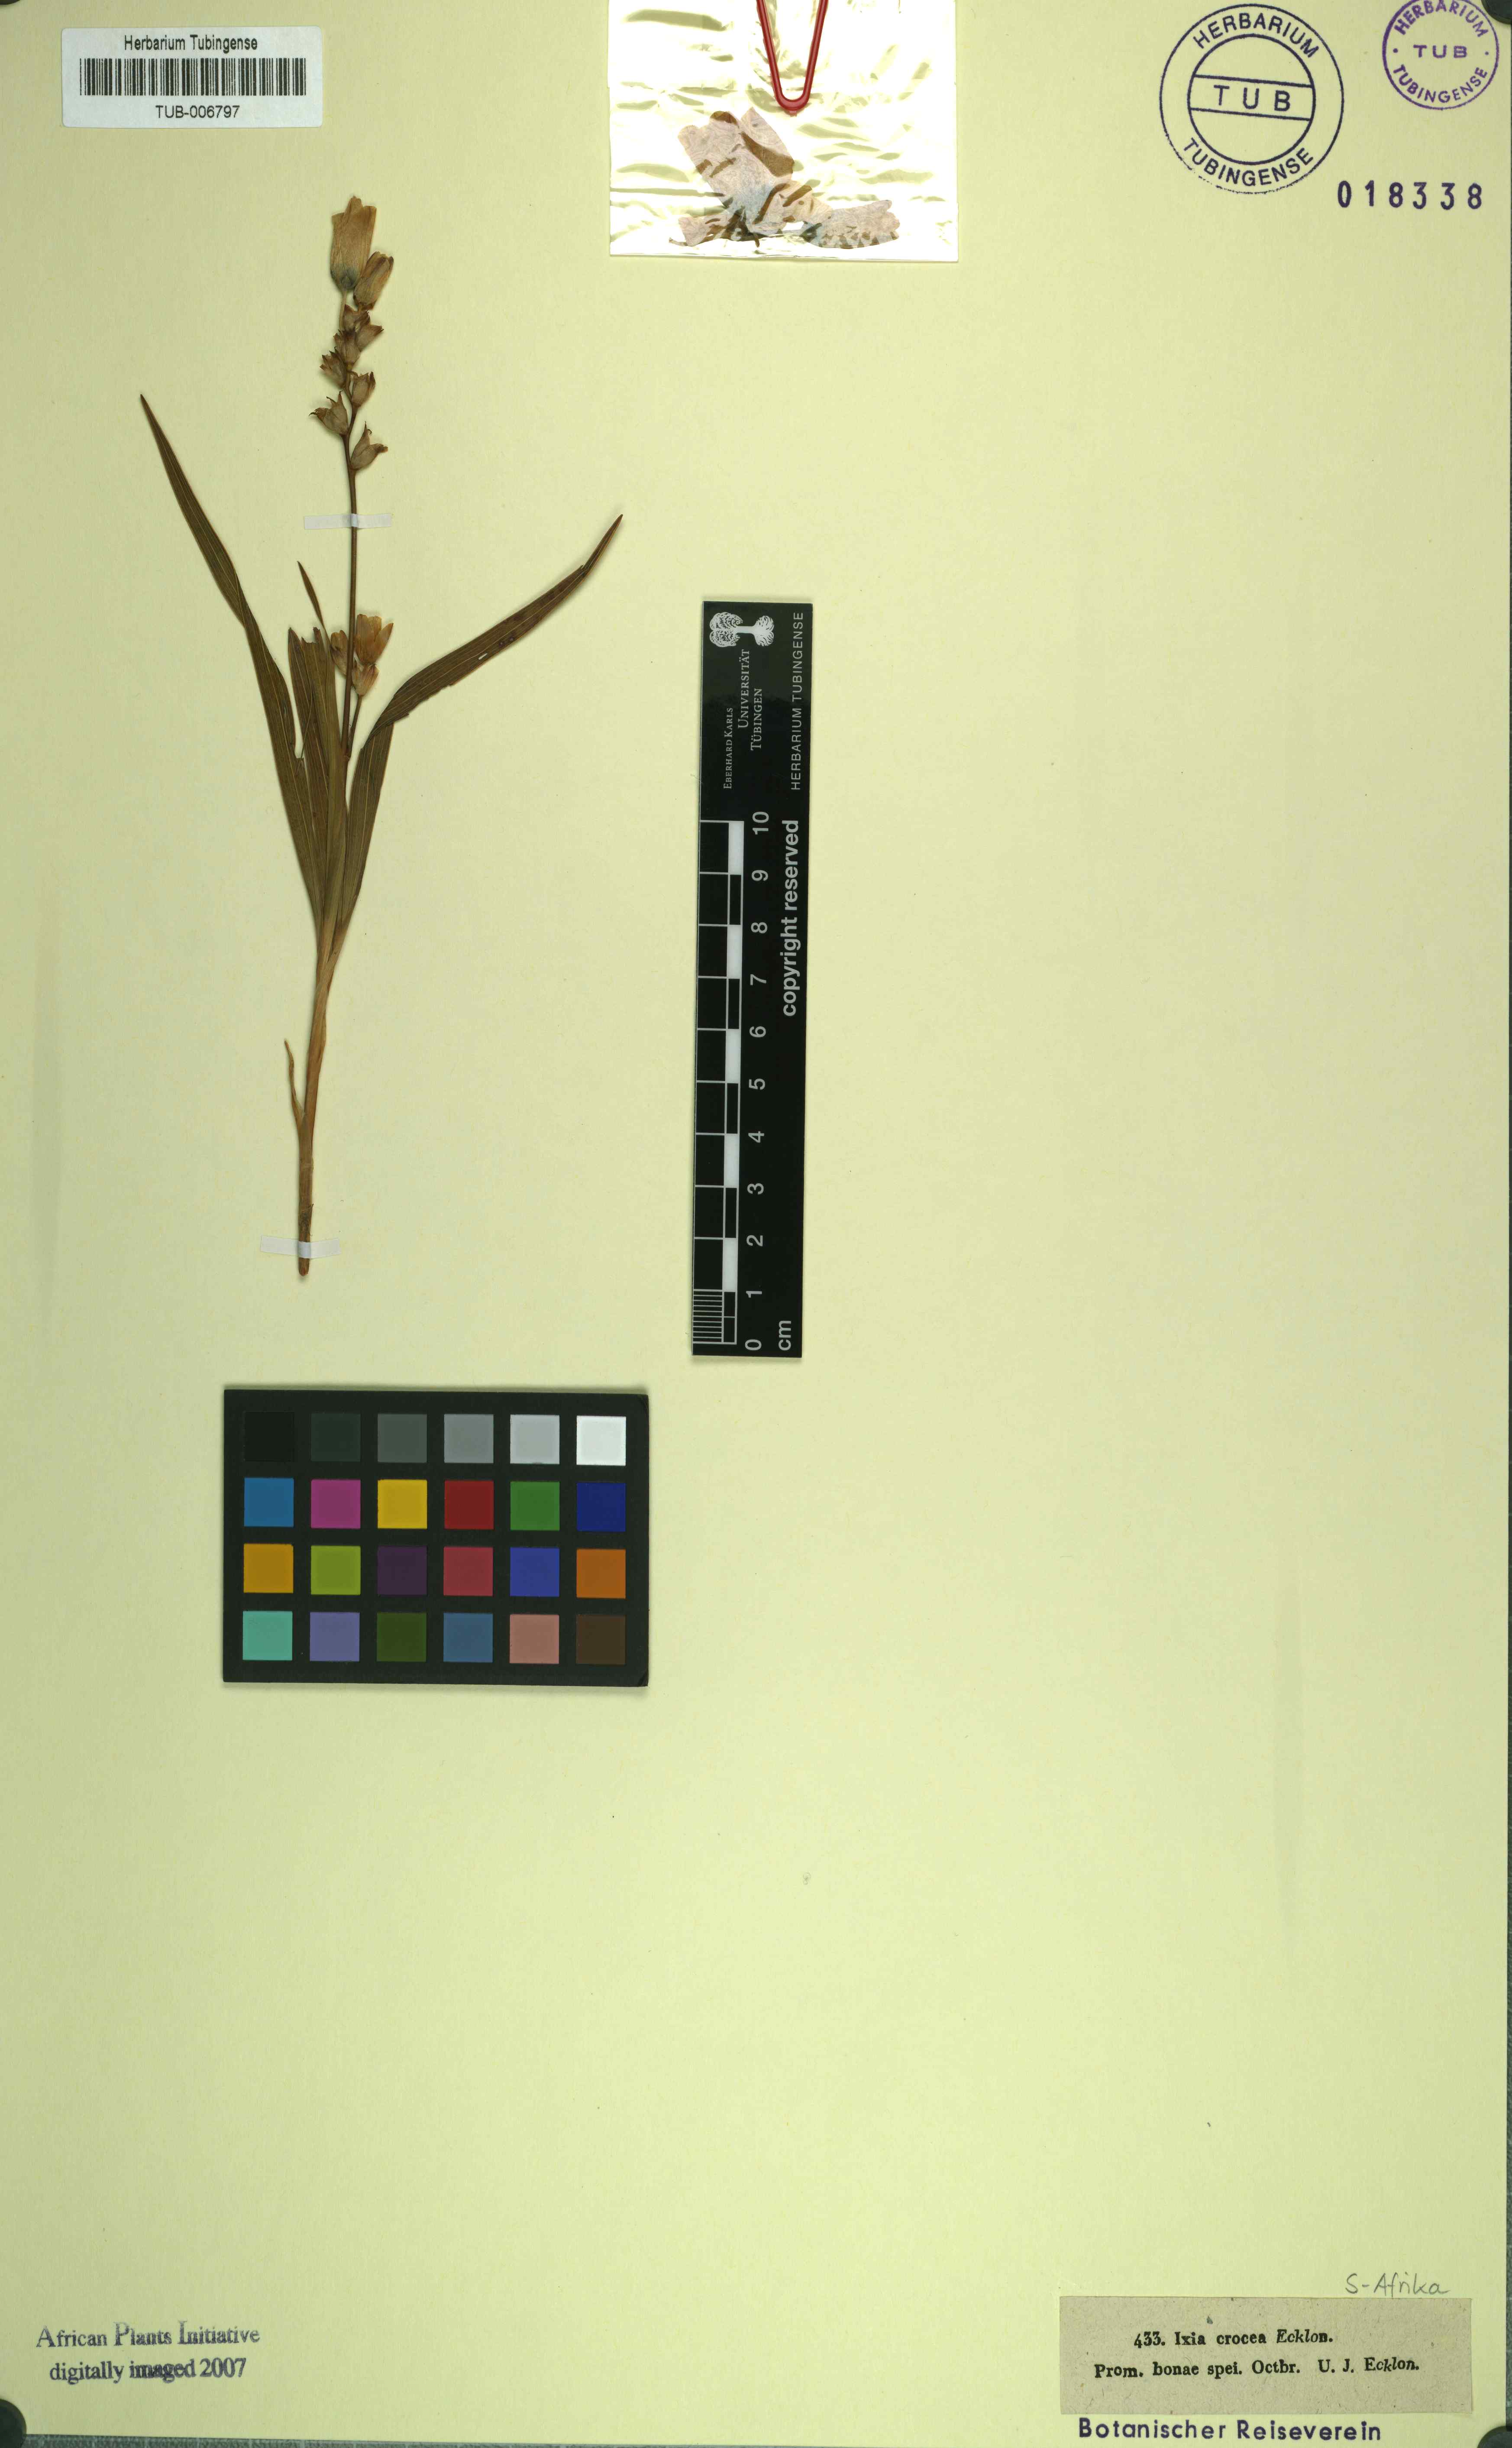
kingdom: Plantae
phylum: Tracheophyta
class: Liliopsida
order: Asparagales
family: Iridaceae
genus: Romulea
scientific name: Romulea triflora
